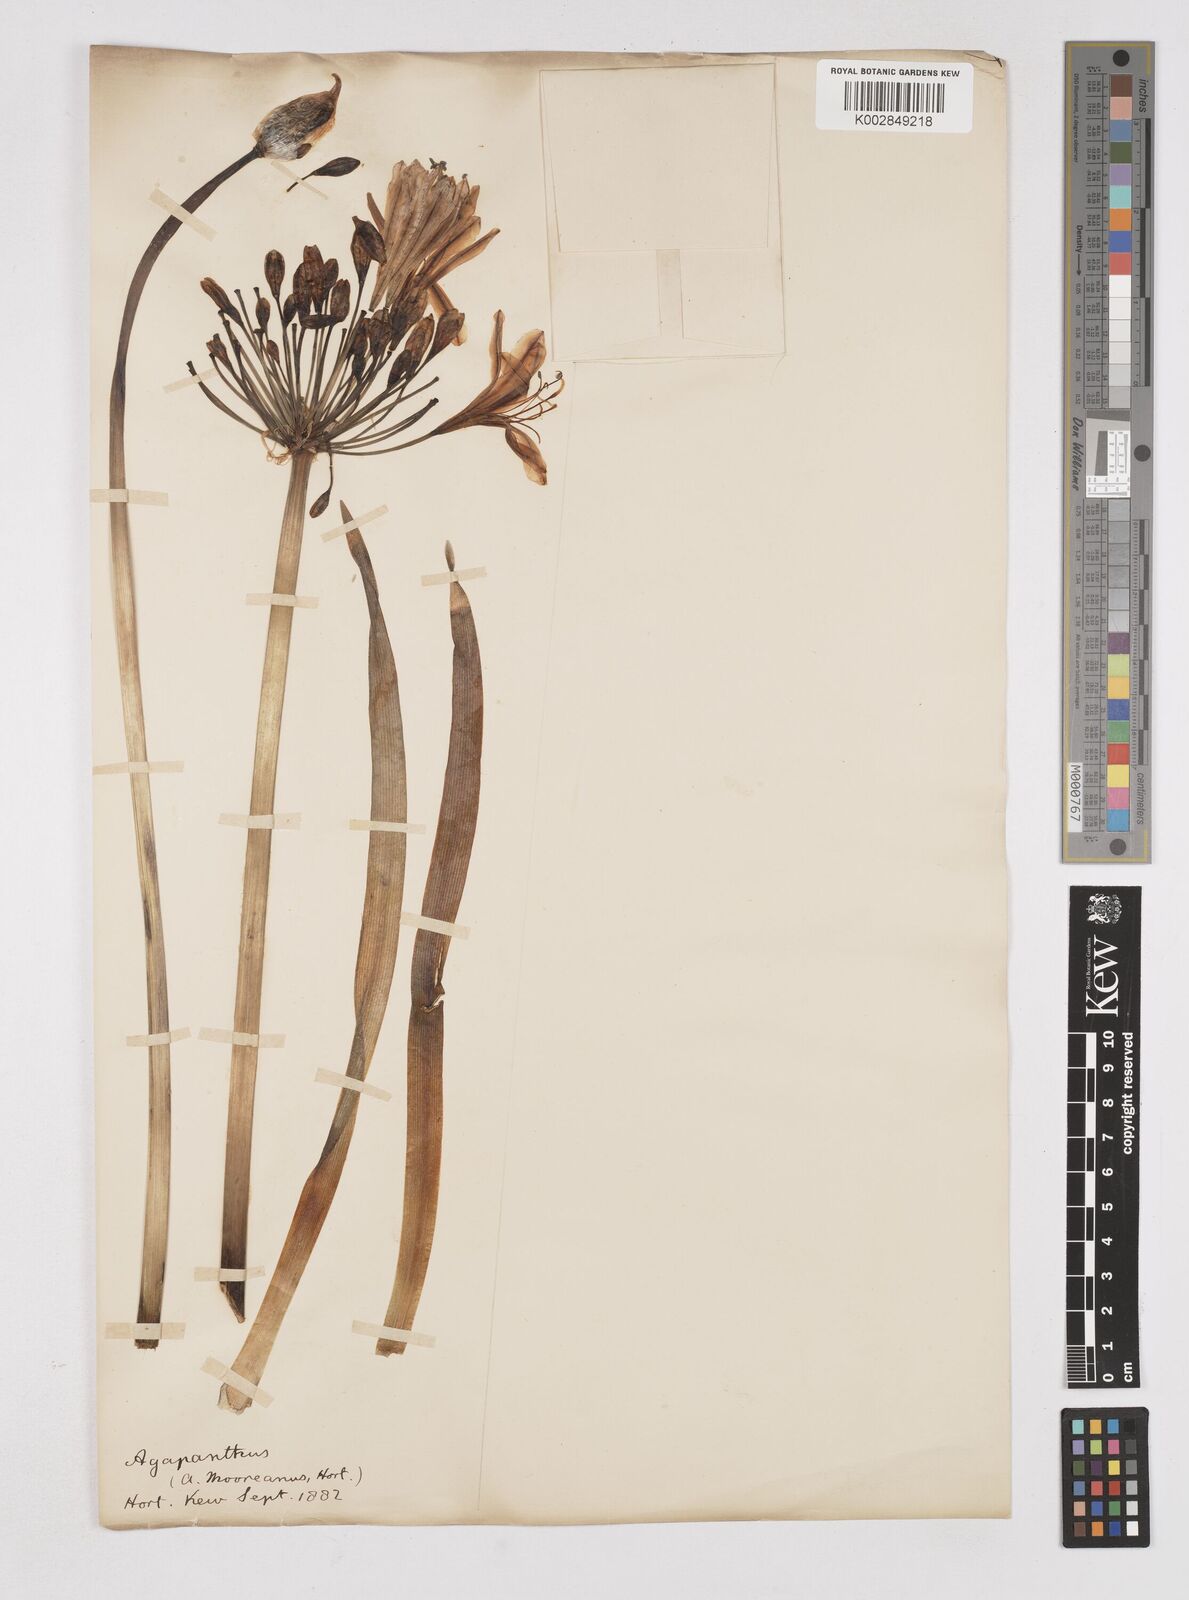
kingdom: Plantae
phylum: Tracheophyta
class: Liliopsida
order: Liliales
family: Liliaceae
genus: Agapanthus
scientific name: Agapanthus
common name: Agapanthus
